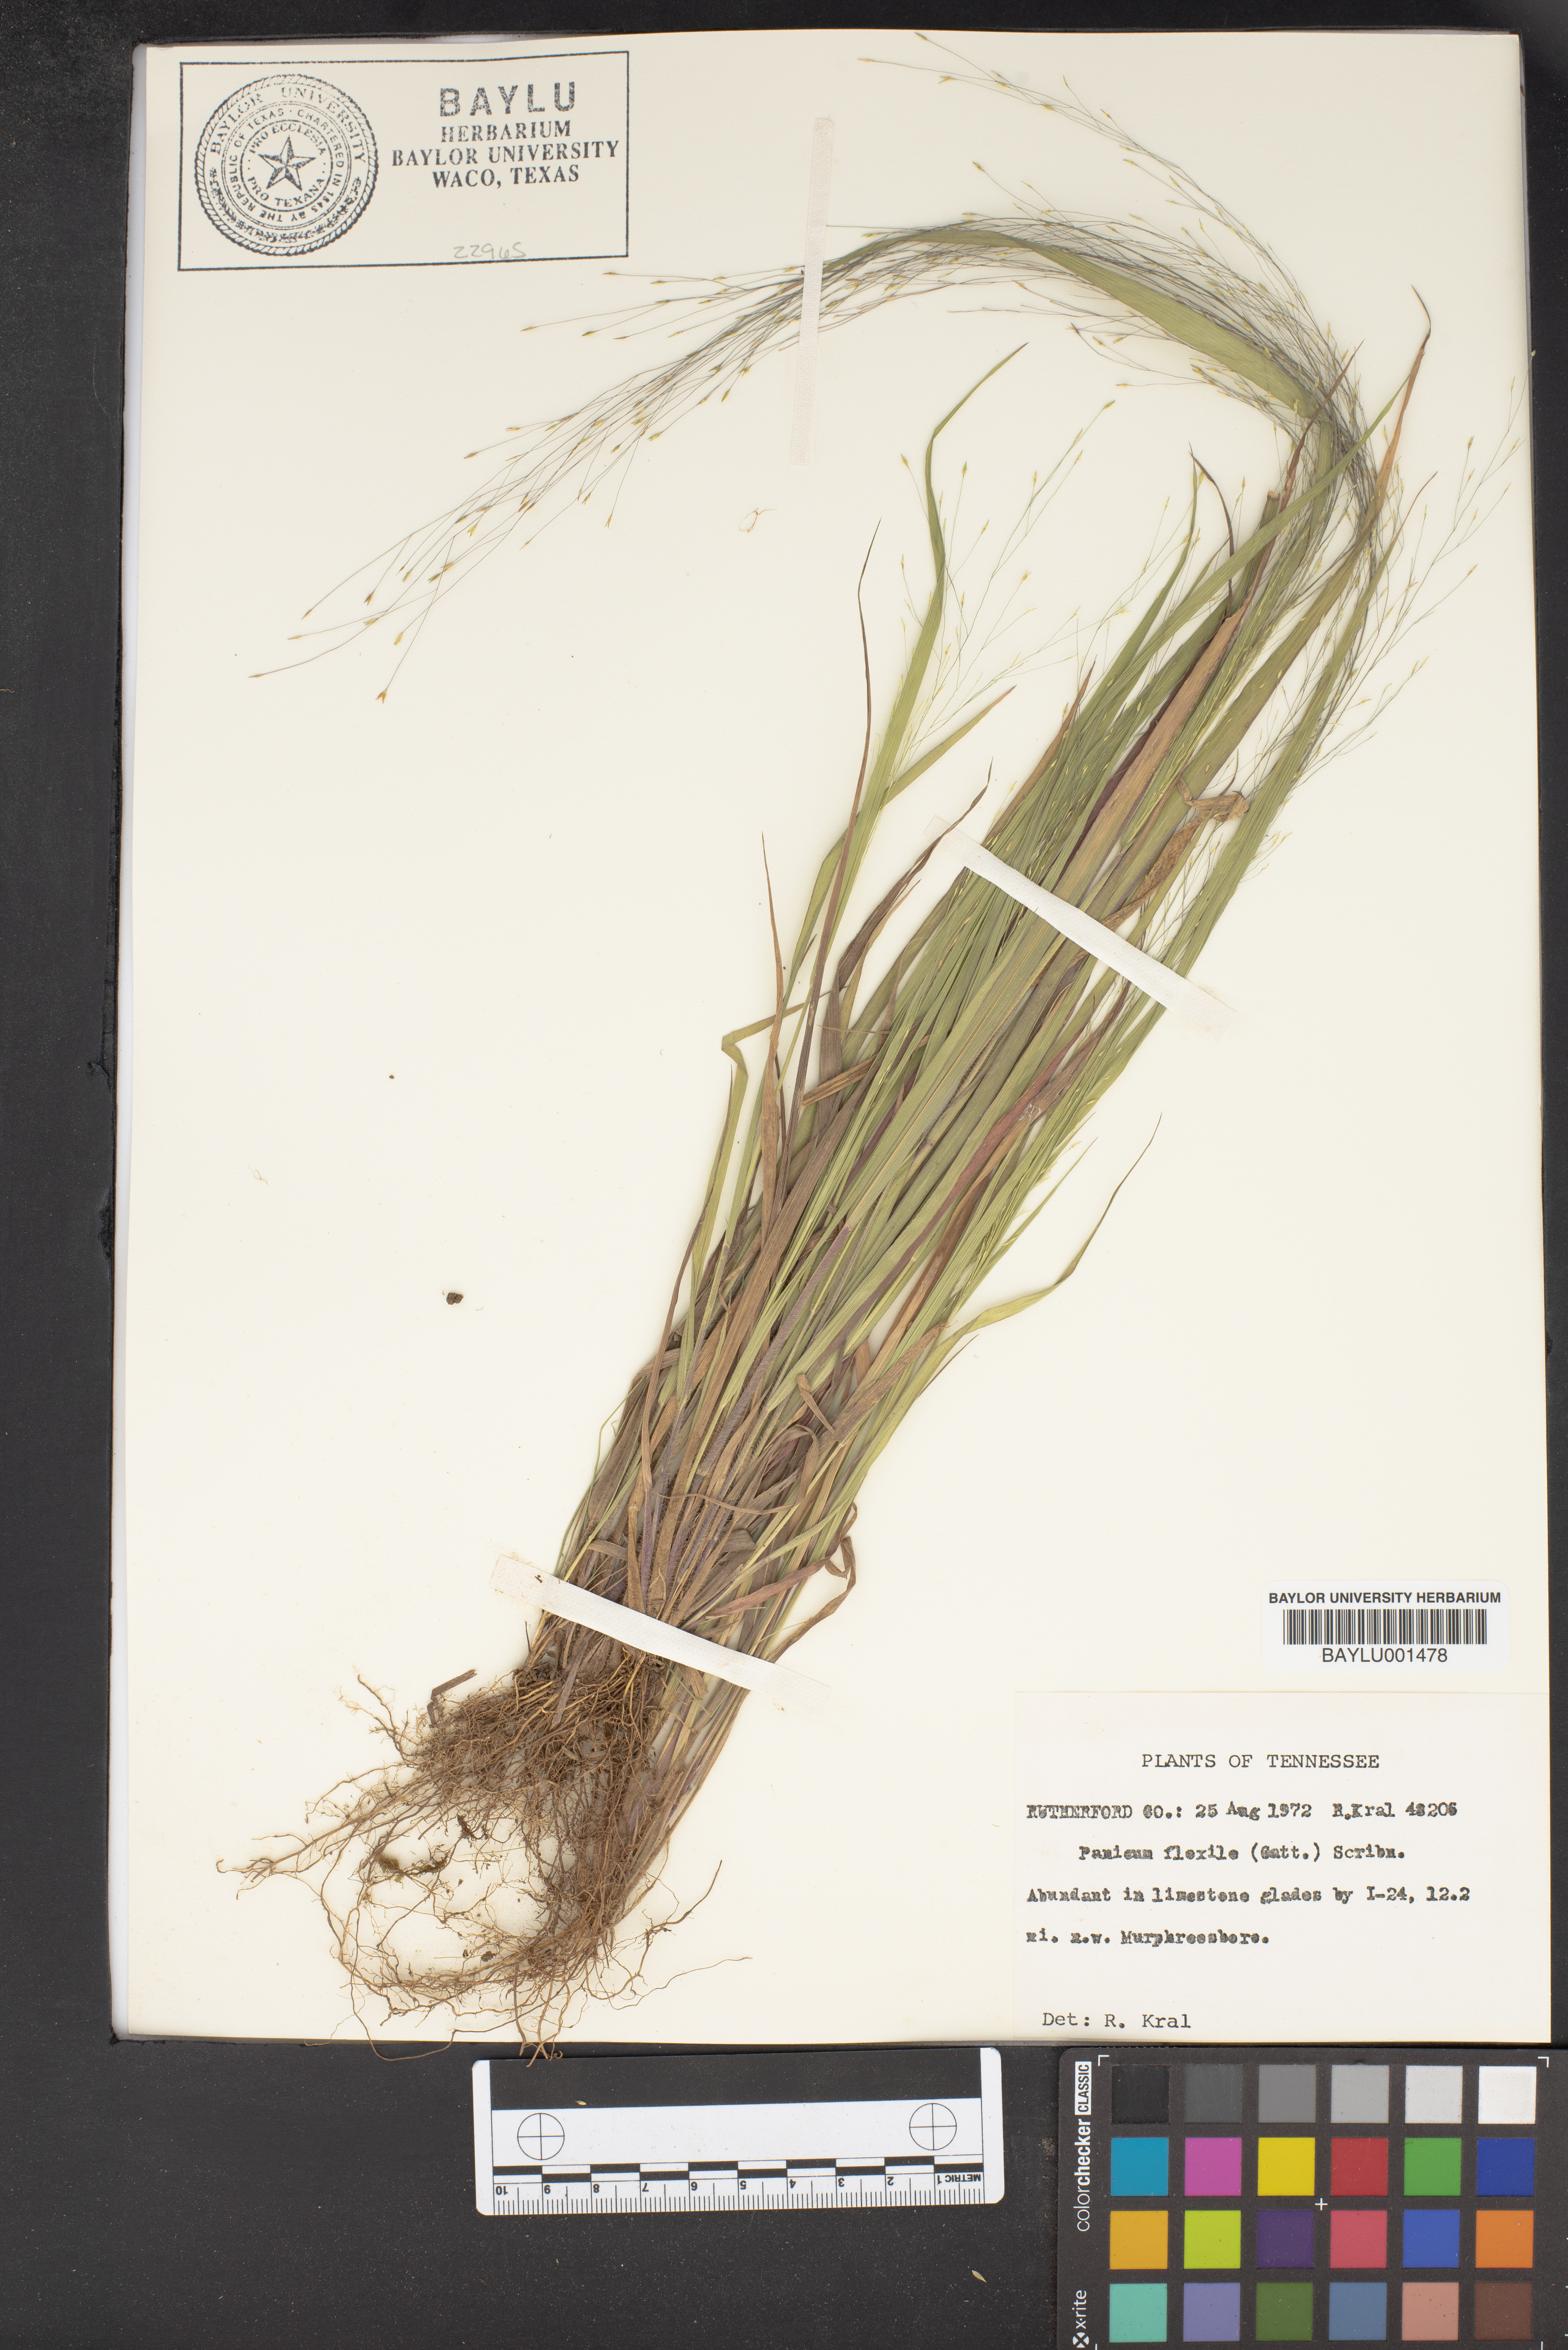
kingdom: Plantae
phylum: Tracheophyta
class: Liliopsida
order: Poales
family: Poaceae
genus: Panicum
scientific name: Panicum flexile
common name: Wiry panicgrass
